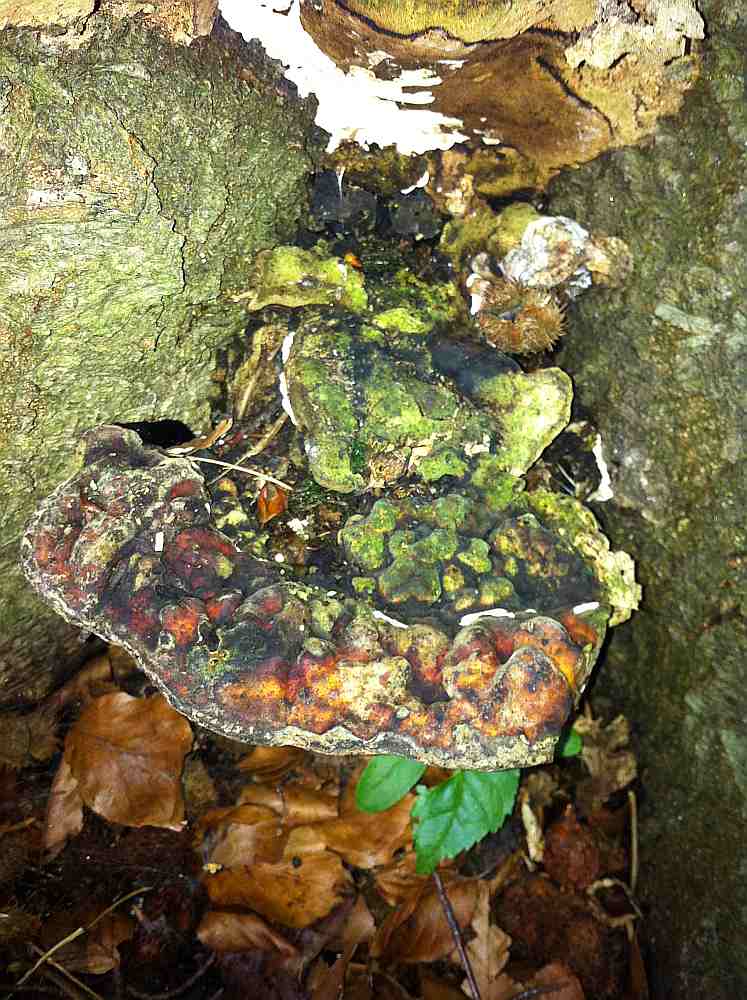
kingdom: Fungi
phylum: Basidiomycota
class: Agaricomycetes
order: Polyporales
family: Polyporaceae
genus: Vanderbylia
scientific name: Vanderbylia fraxinea
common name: stor kanelporesvamp
